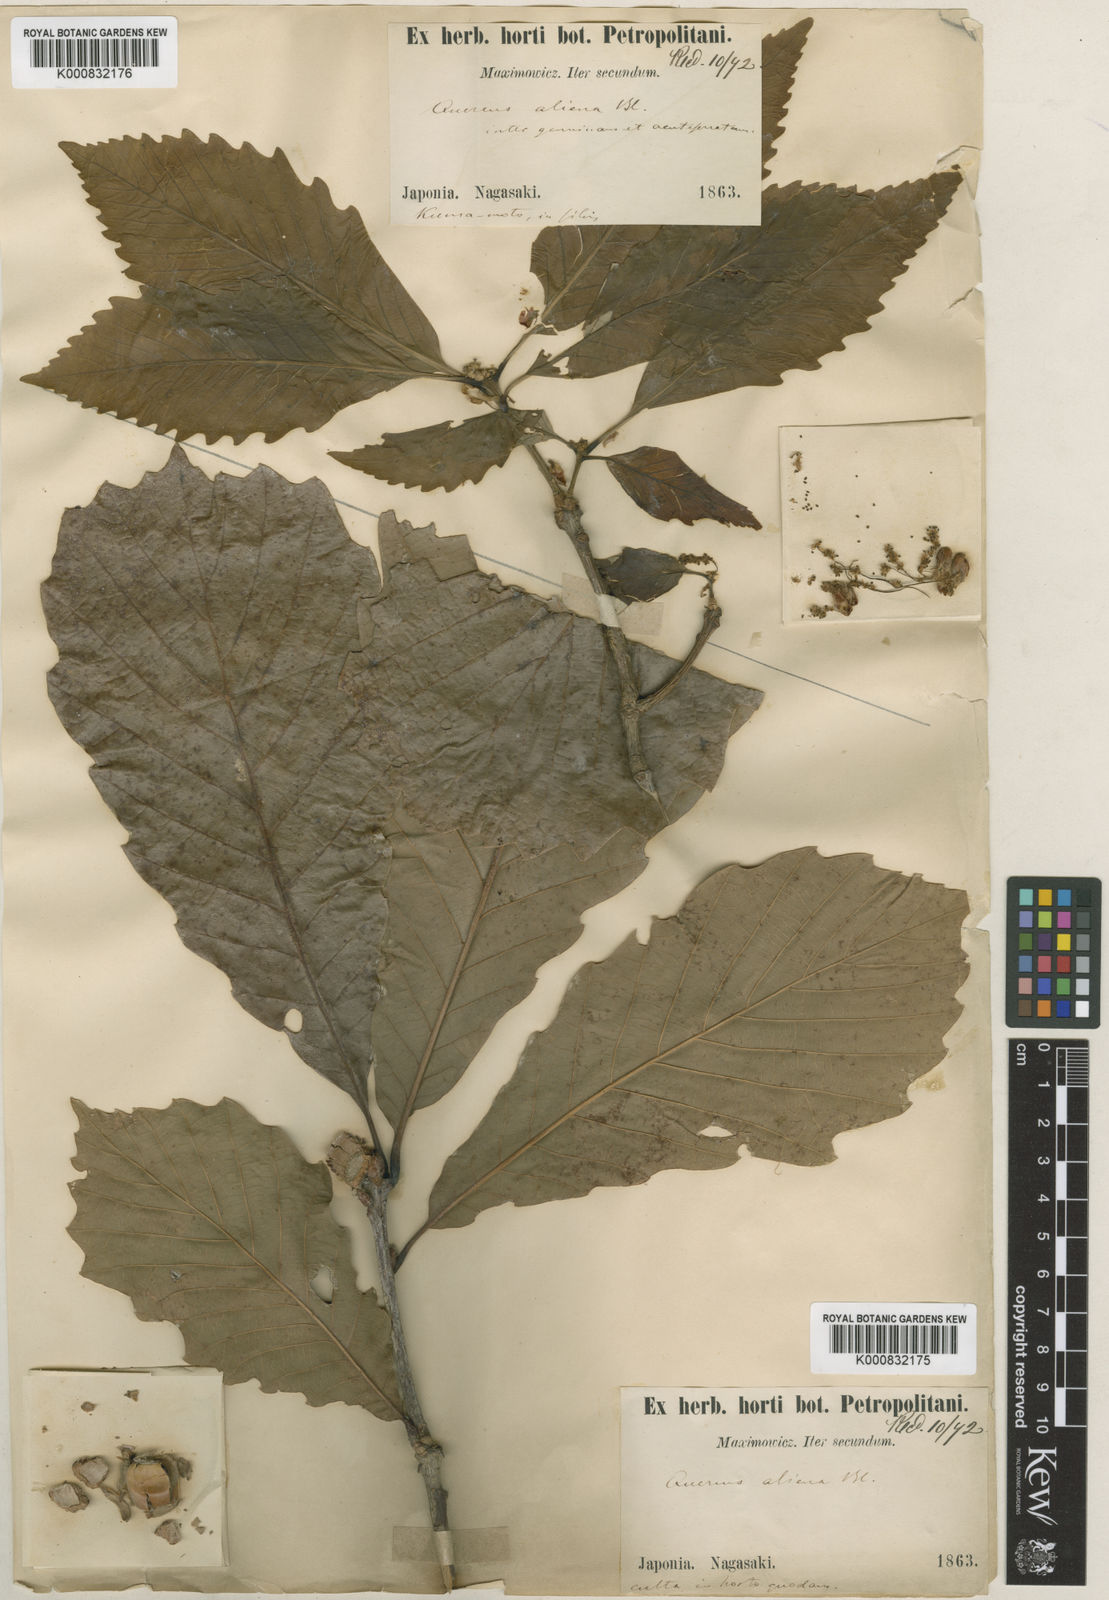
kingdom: Plantae
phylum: Tracheophyta
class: Magnoliopsida
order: Fagales
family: Fagaceae
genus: Quercus
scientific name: Quercus aliena
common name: Oriental white oak
